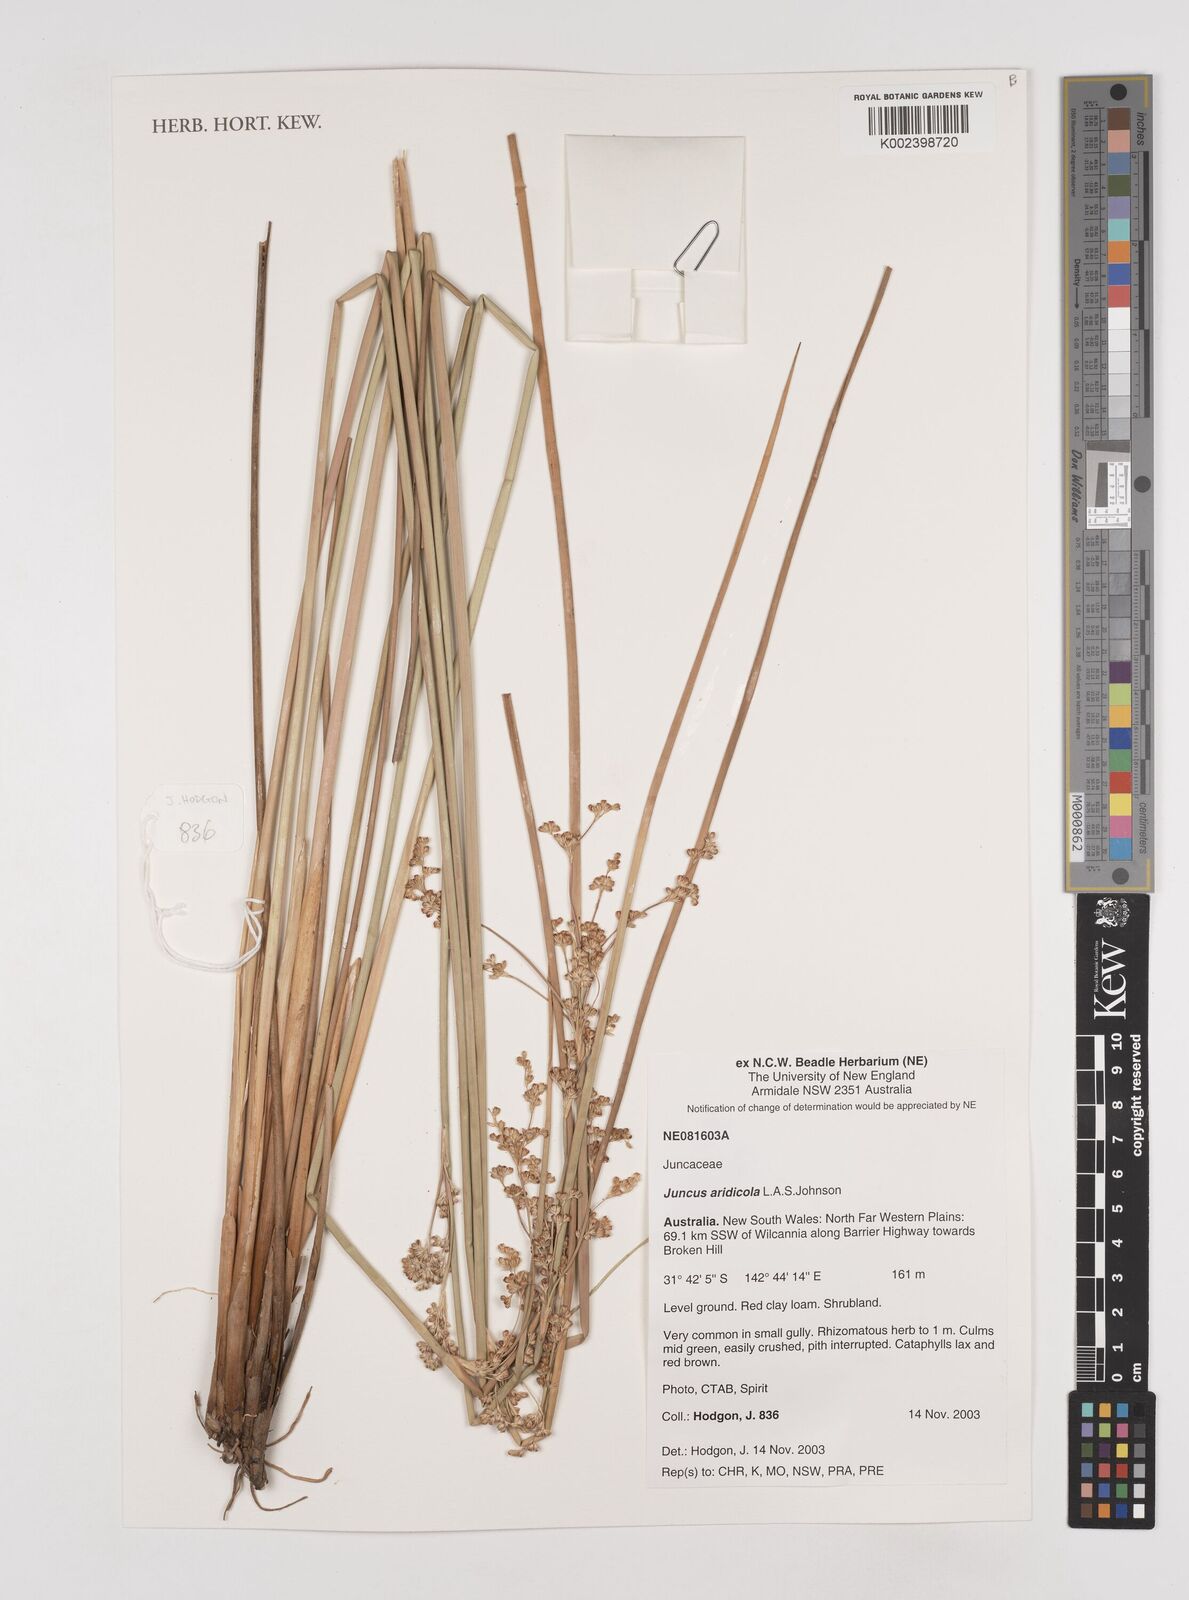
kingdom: Plantae
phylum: Tracheophyta
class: Liliopsida
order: Poales
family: Juncaceae
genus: Juncus
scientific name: Juncus aridicola
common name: Tussock rush
